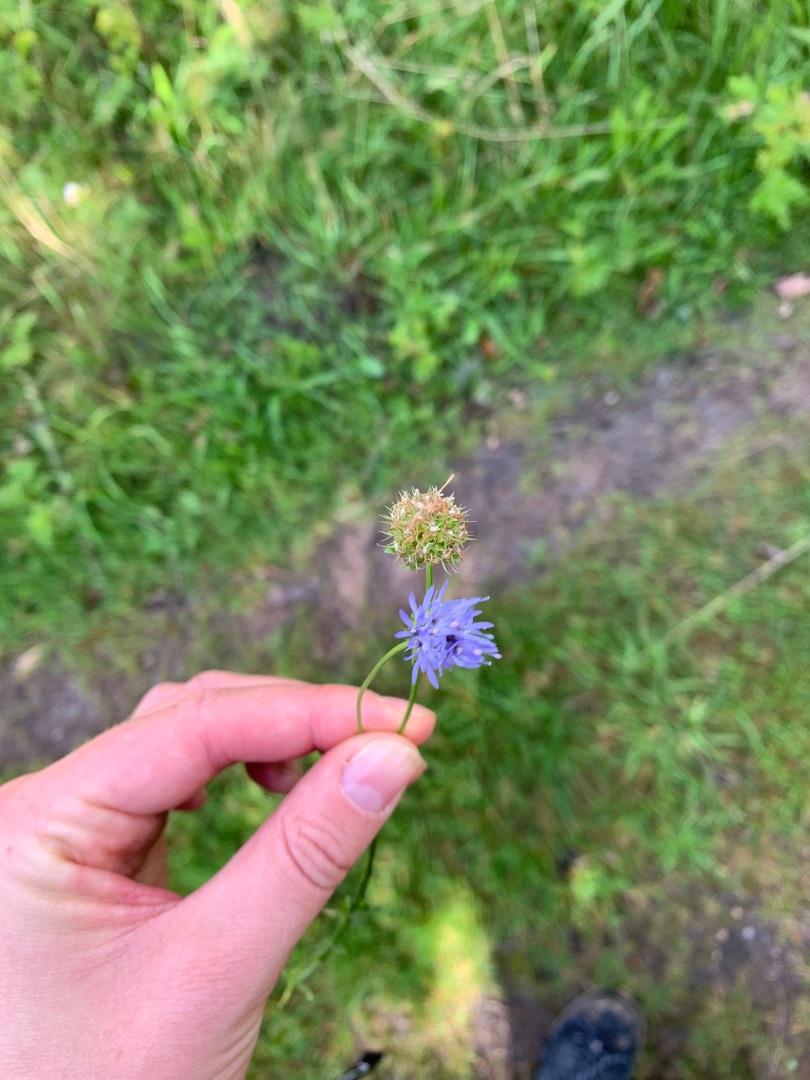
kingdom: Plantae
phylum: Tracheophyta
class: Magnoliopsida
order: Asterales
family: Campanulaceae
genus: Jasione
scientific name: Jasione montana
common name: Blåmunke
